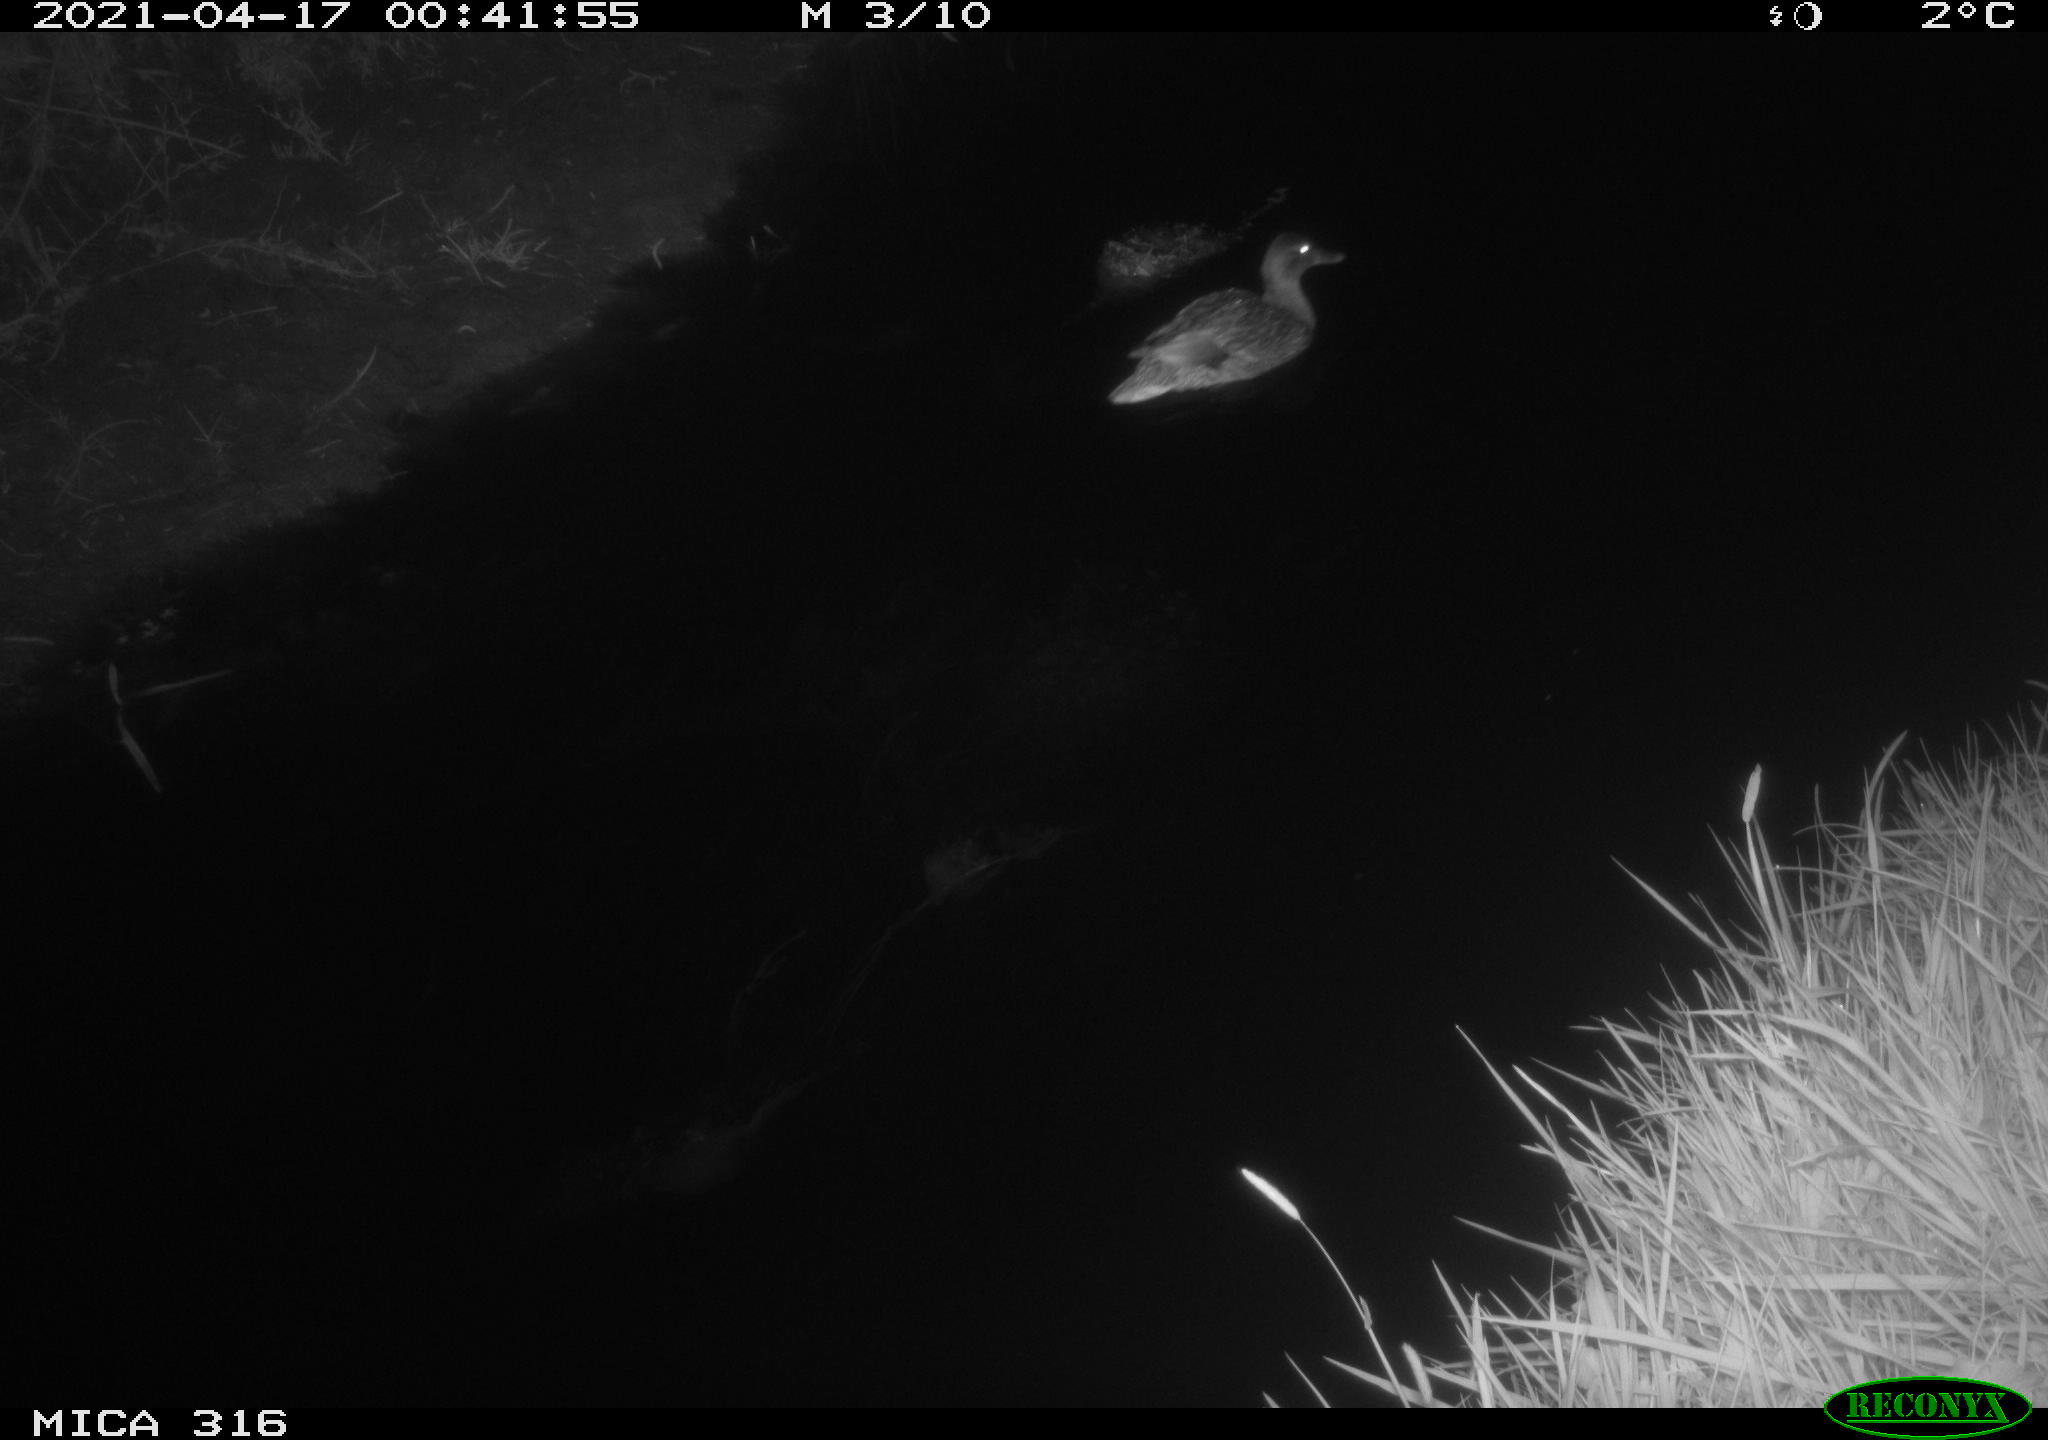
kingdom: Animalia
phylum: Chordata
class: Aves
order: Anseriformes
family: Anatidae
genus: Anas
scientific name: Anas platyrhynchos
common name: Mallard
